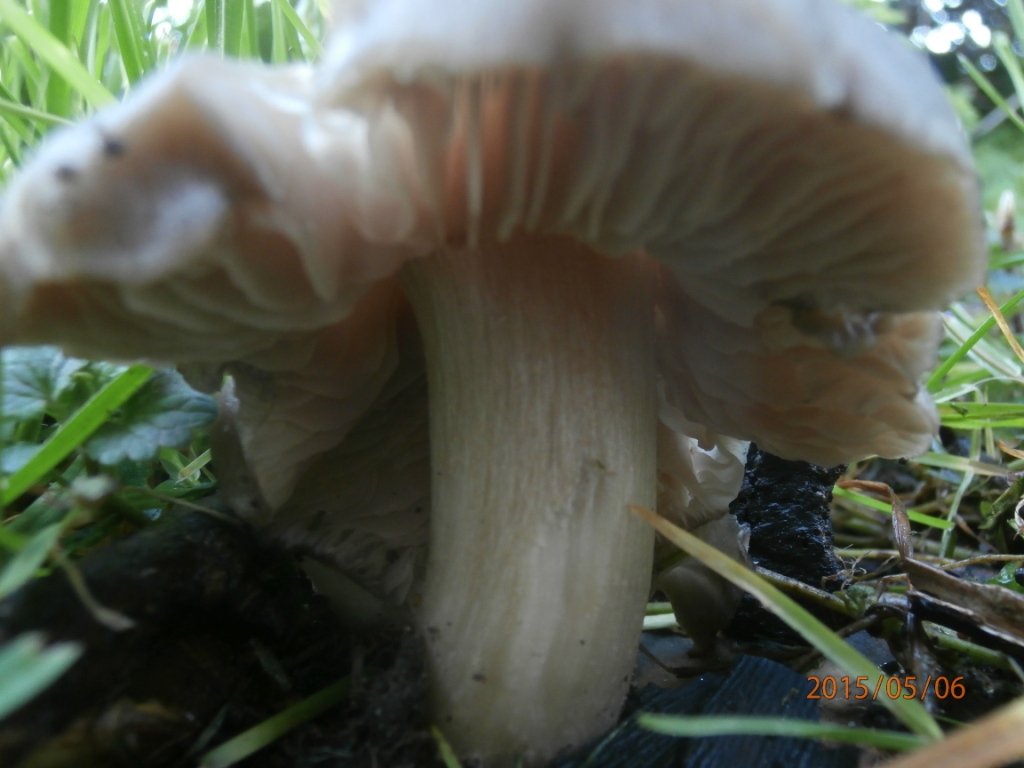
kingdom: Fungi
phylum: Basidiomycota
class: Agaricomycetes
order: Agaricales
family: Entolomataceae
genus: Entoloma
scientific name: Entoloma clypeatum
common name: flammet rødblad
